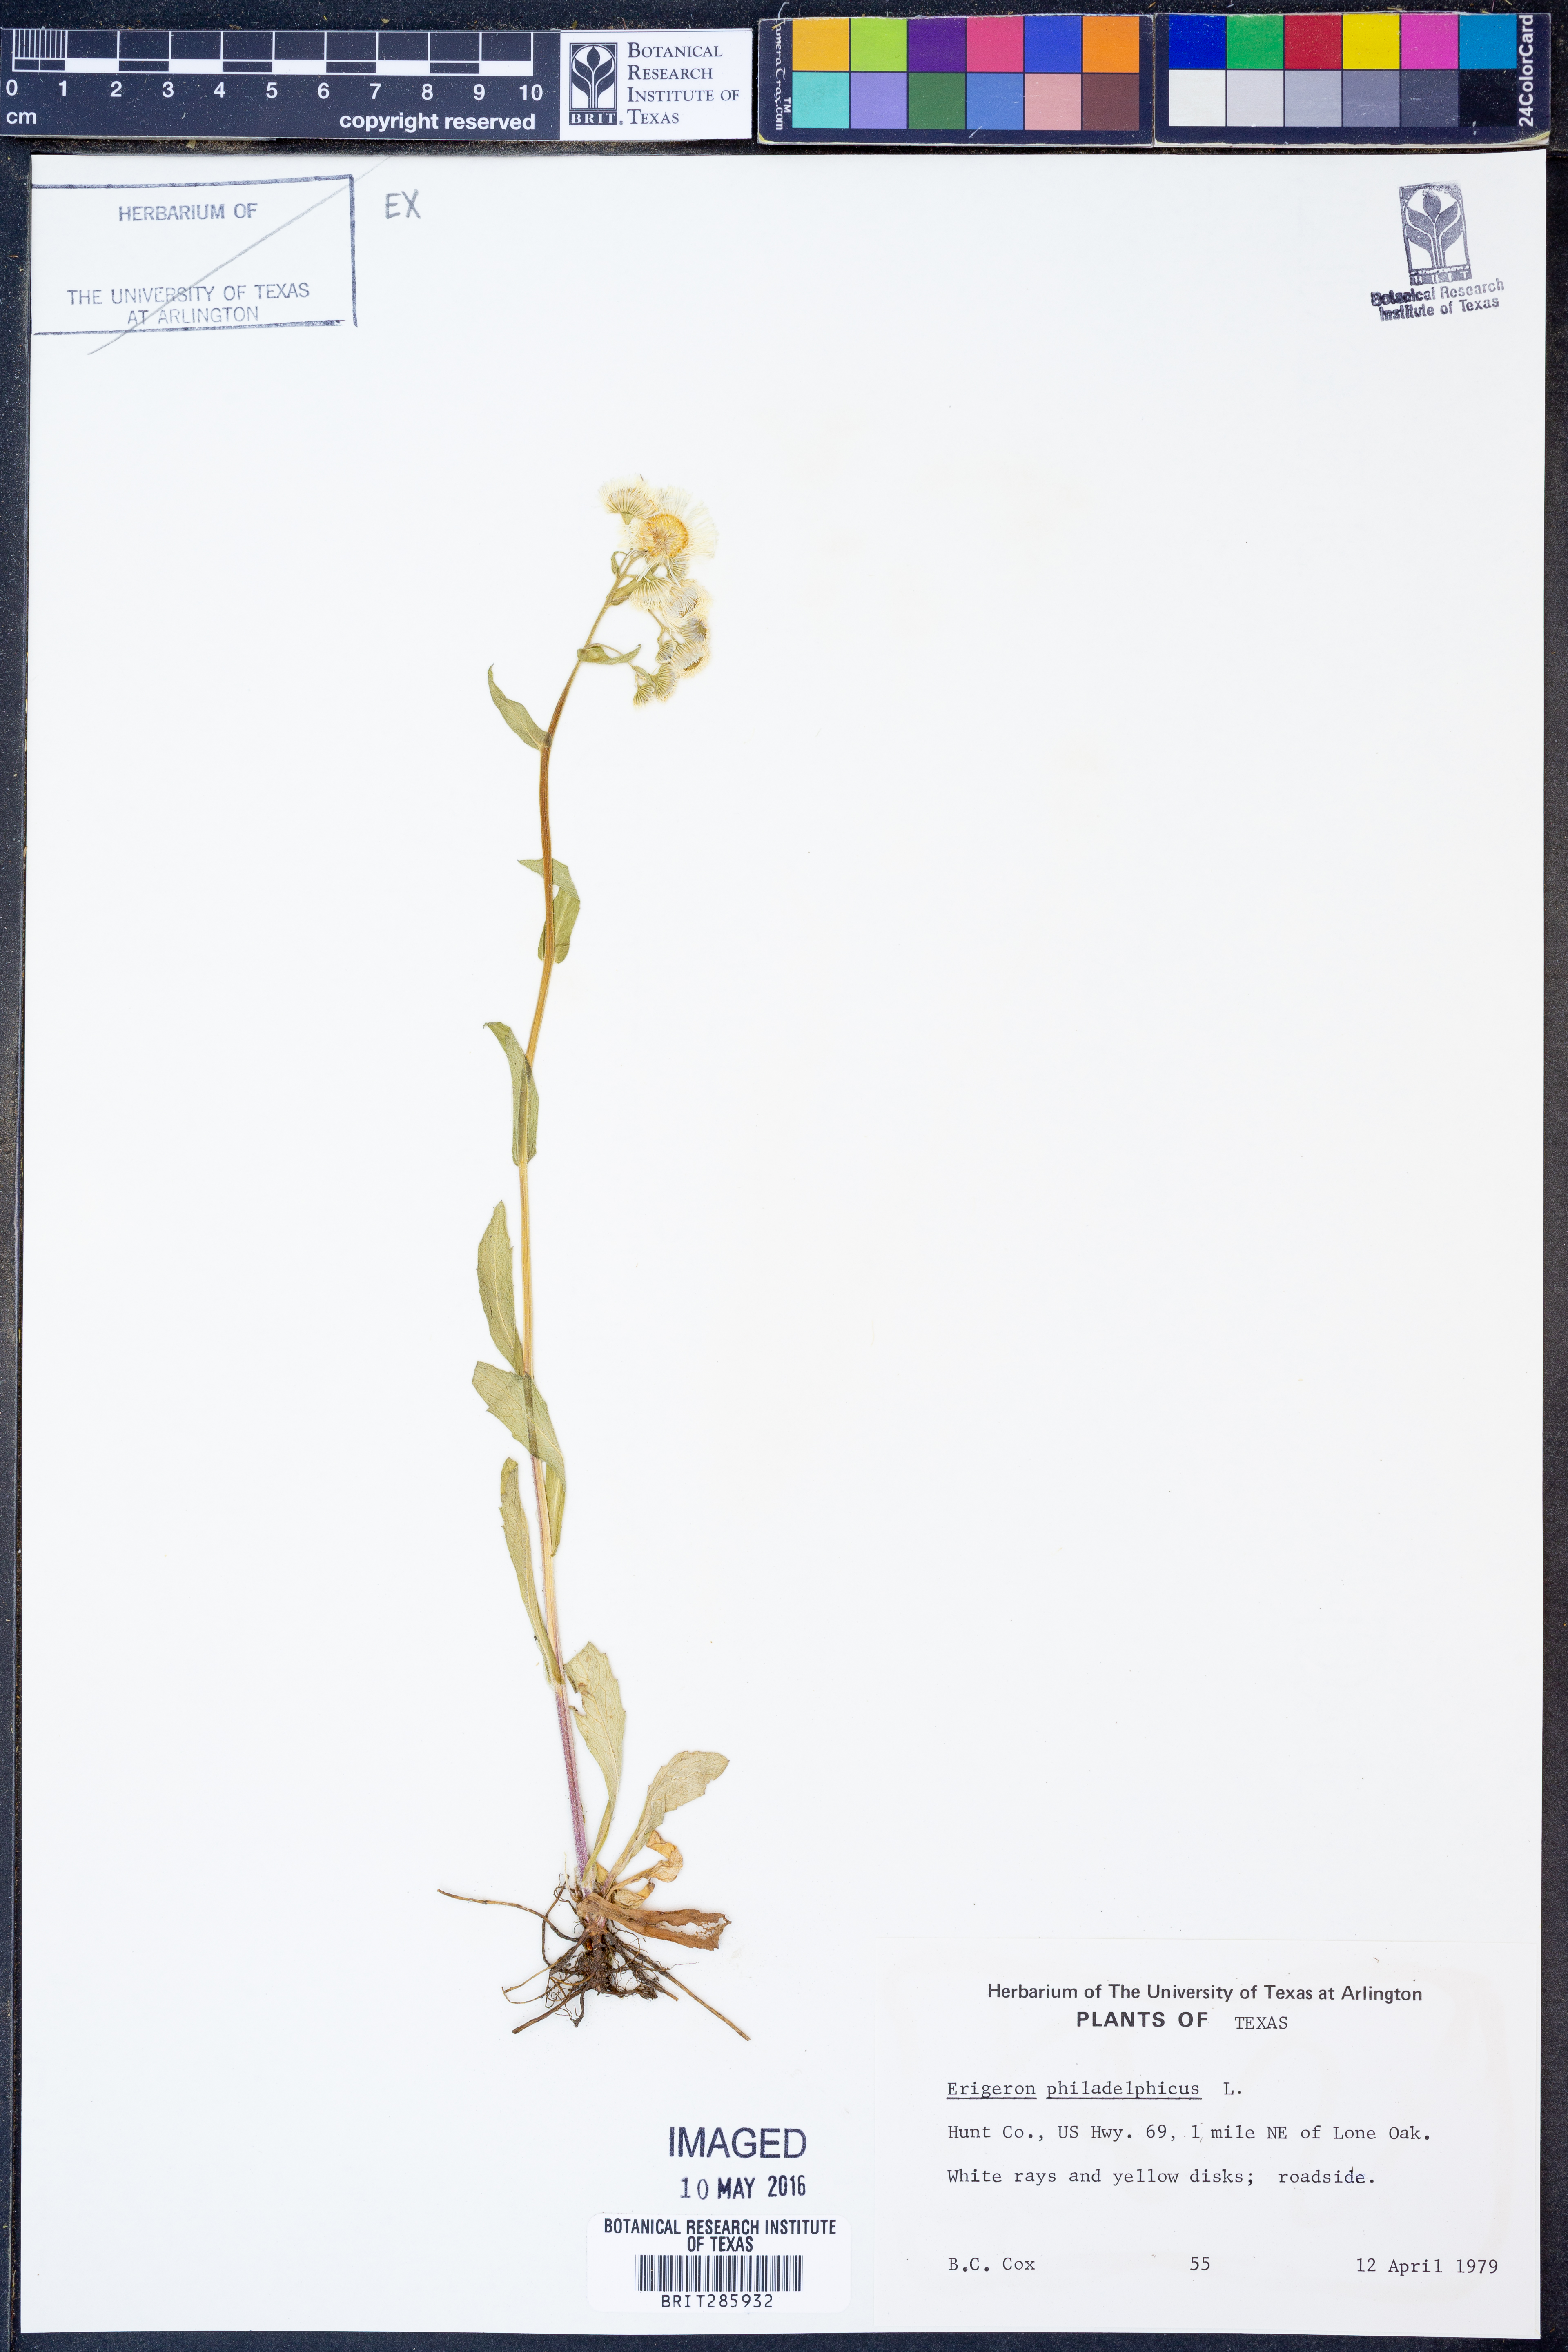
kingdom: Plantae
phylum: Tracheophyta
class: Magnoliopsida
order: Asterales
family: Asteraceae
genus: Erigeron
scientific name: Erigeron philadelphicus
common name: Robin's-plantain
